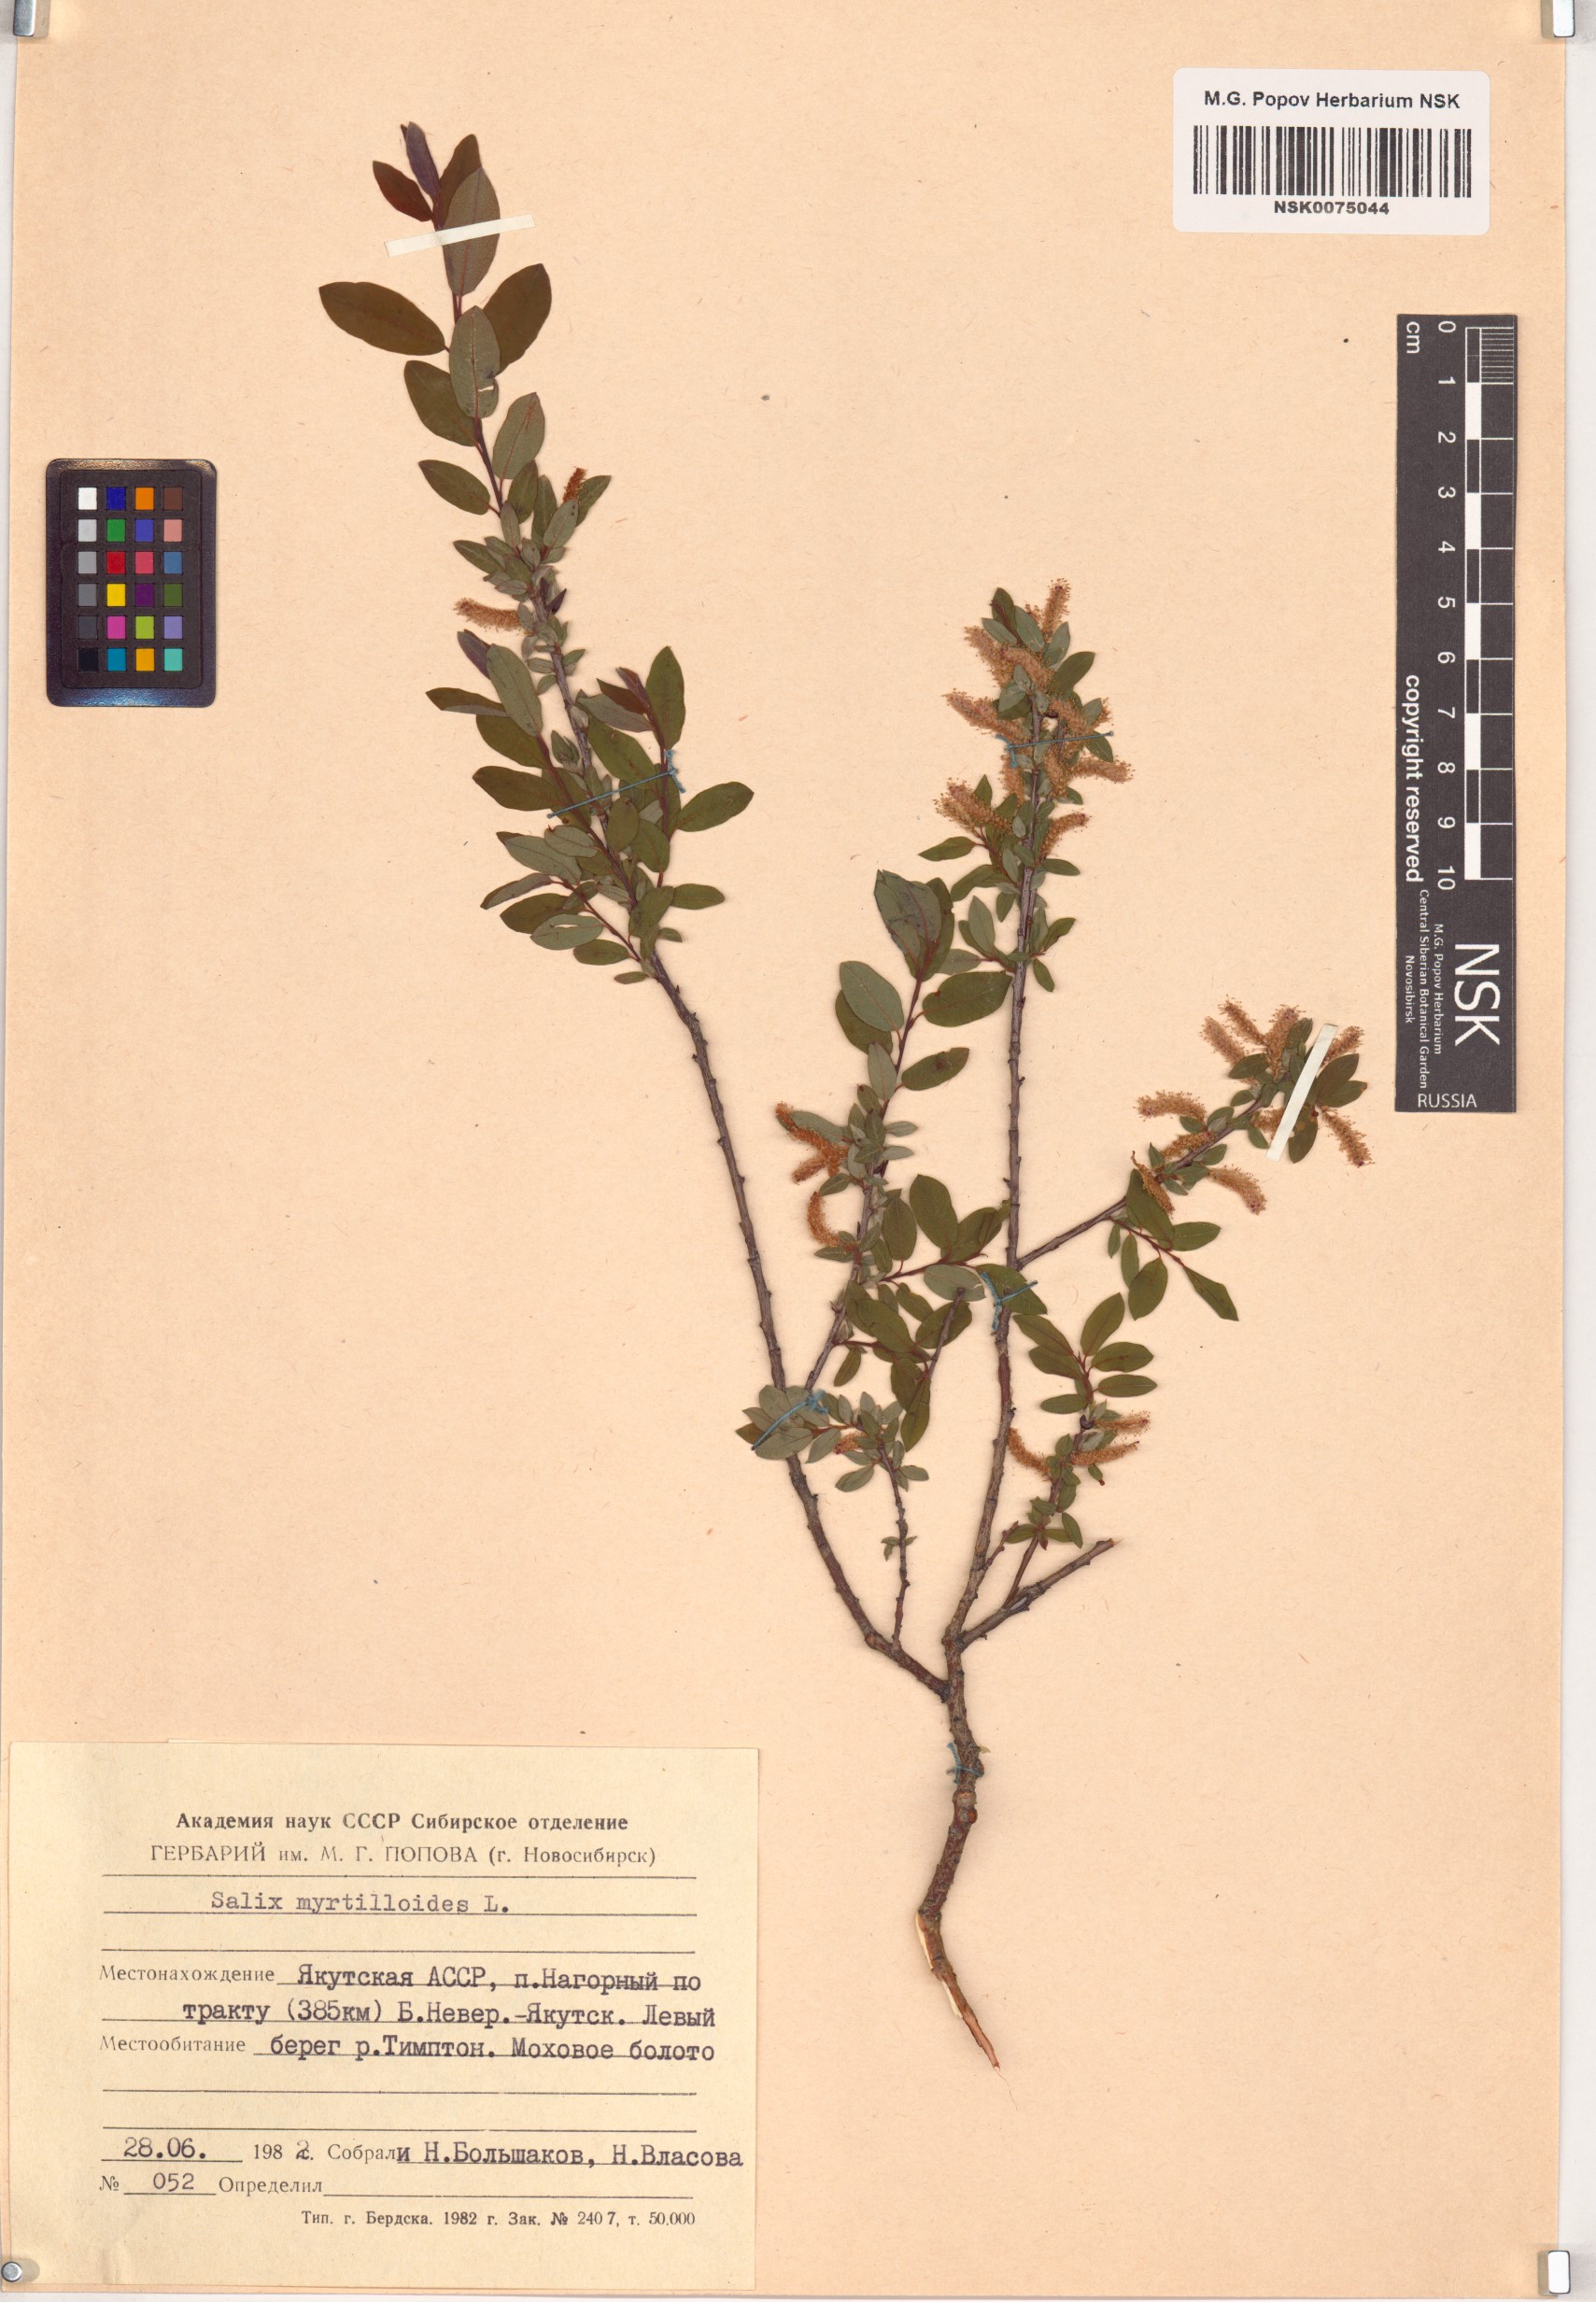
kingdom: Plantae
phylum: Tracheophyta
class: Magnoliopsida
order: Malpighiales
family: Salicaceae
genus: Salix
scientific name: Salix myrtilloides
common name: Myrtle-leaved willow
